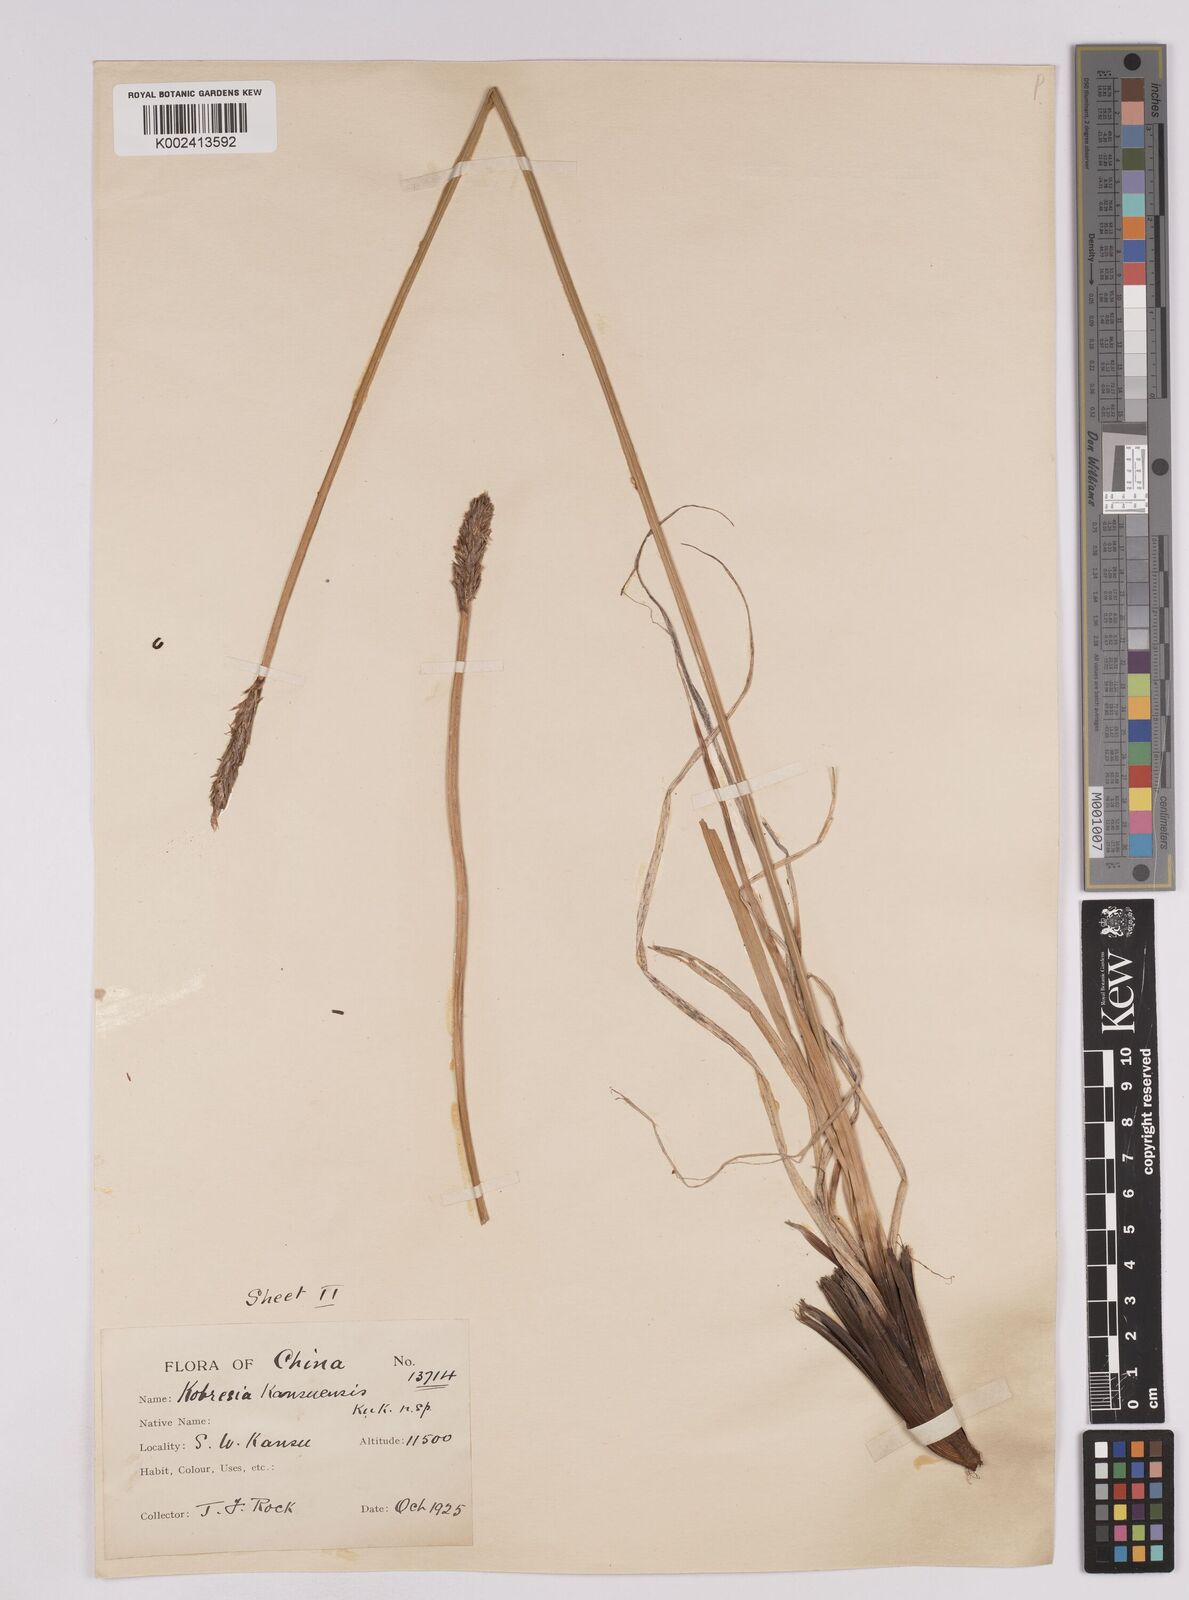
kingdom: Plantae
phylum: Tracheophyta
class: Liliopsida
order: Poales
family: Cyperaceae
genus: Carex
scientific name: Carex pseuduncinoides
